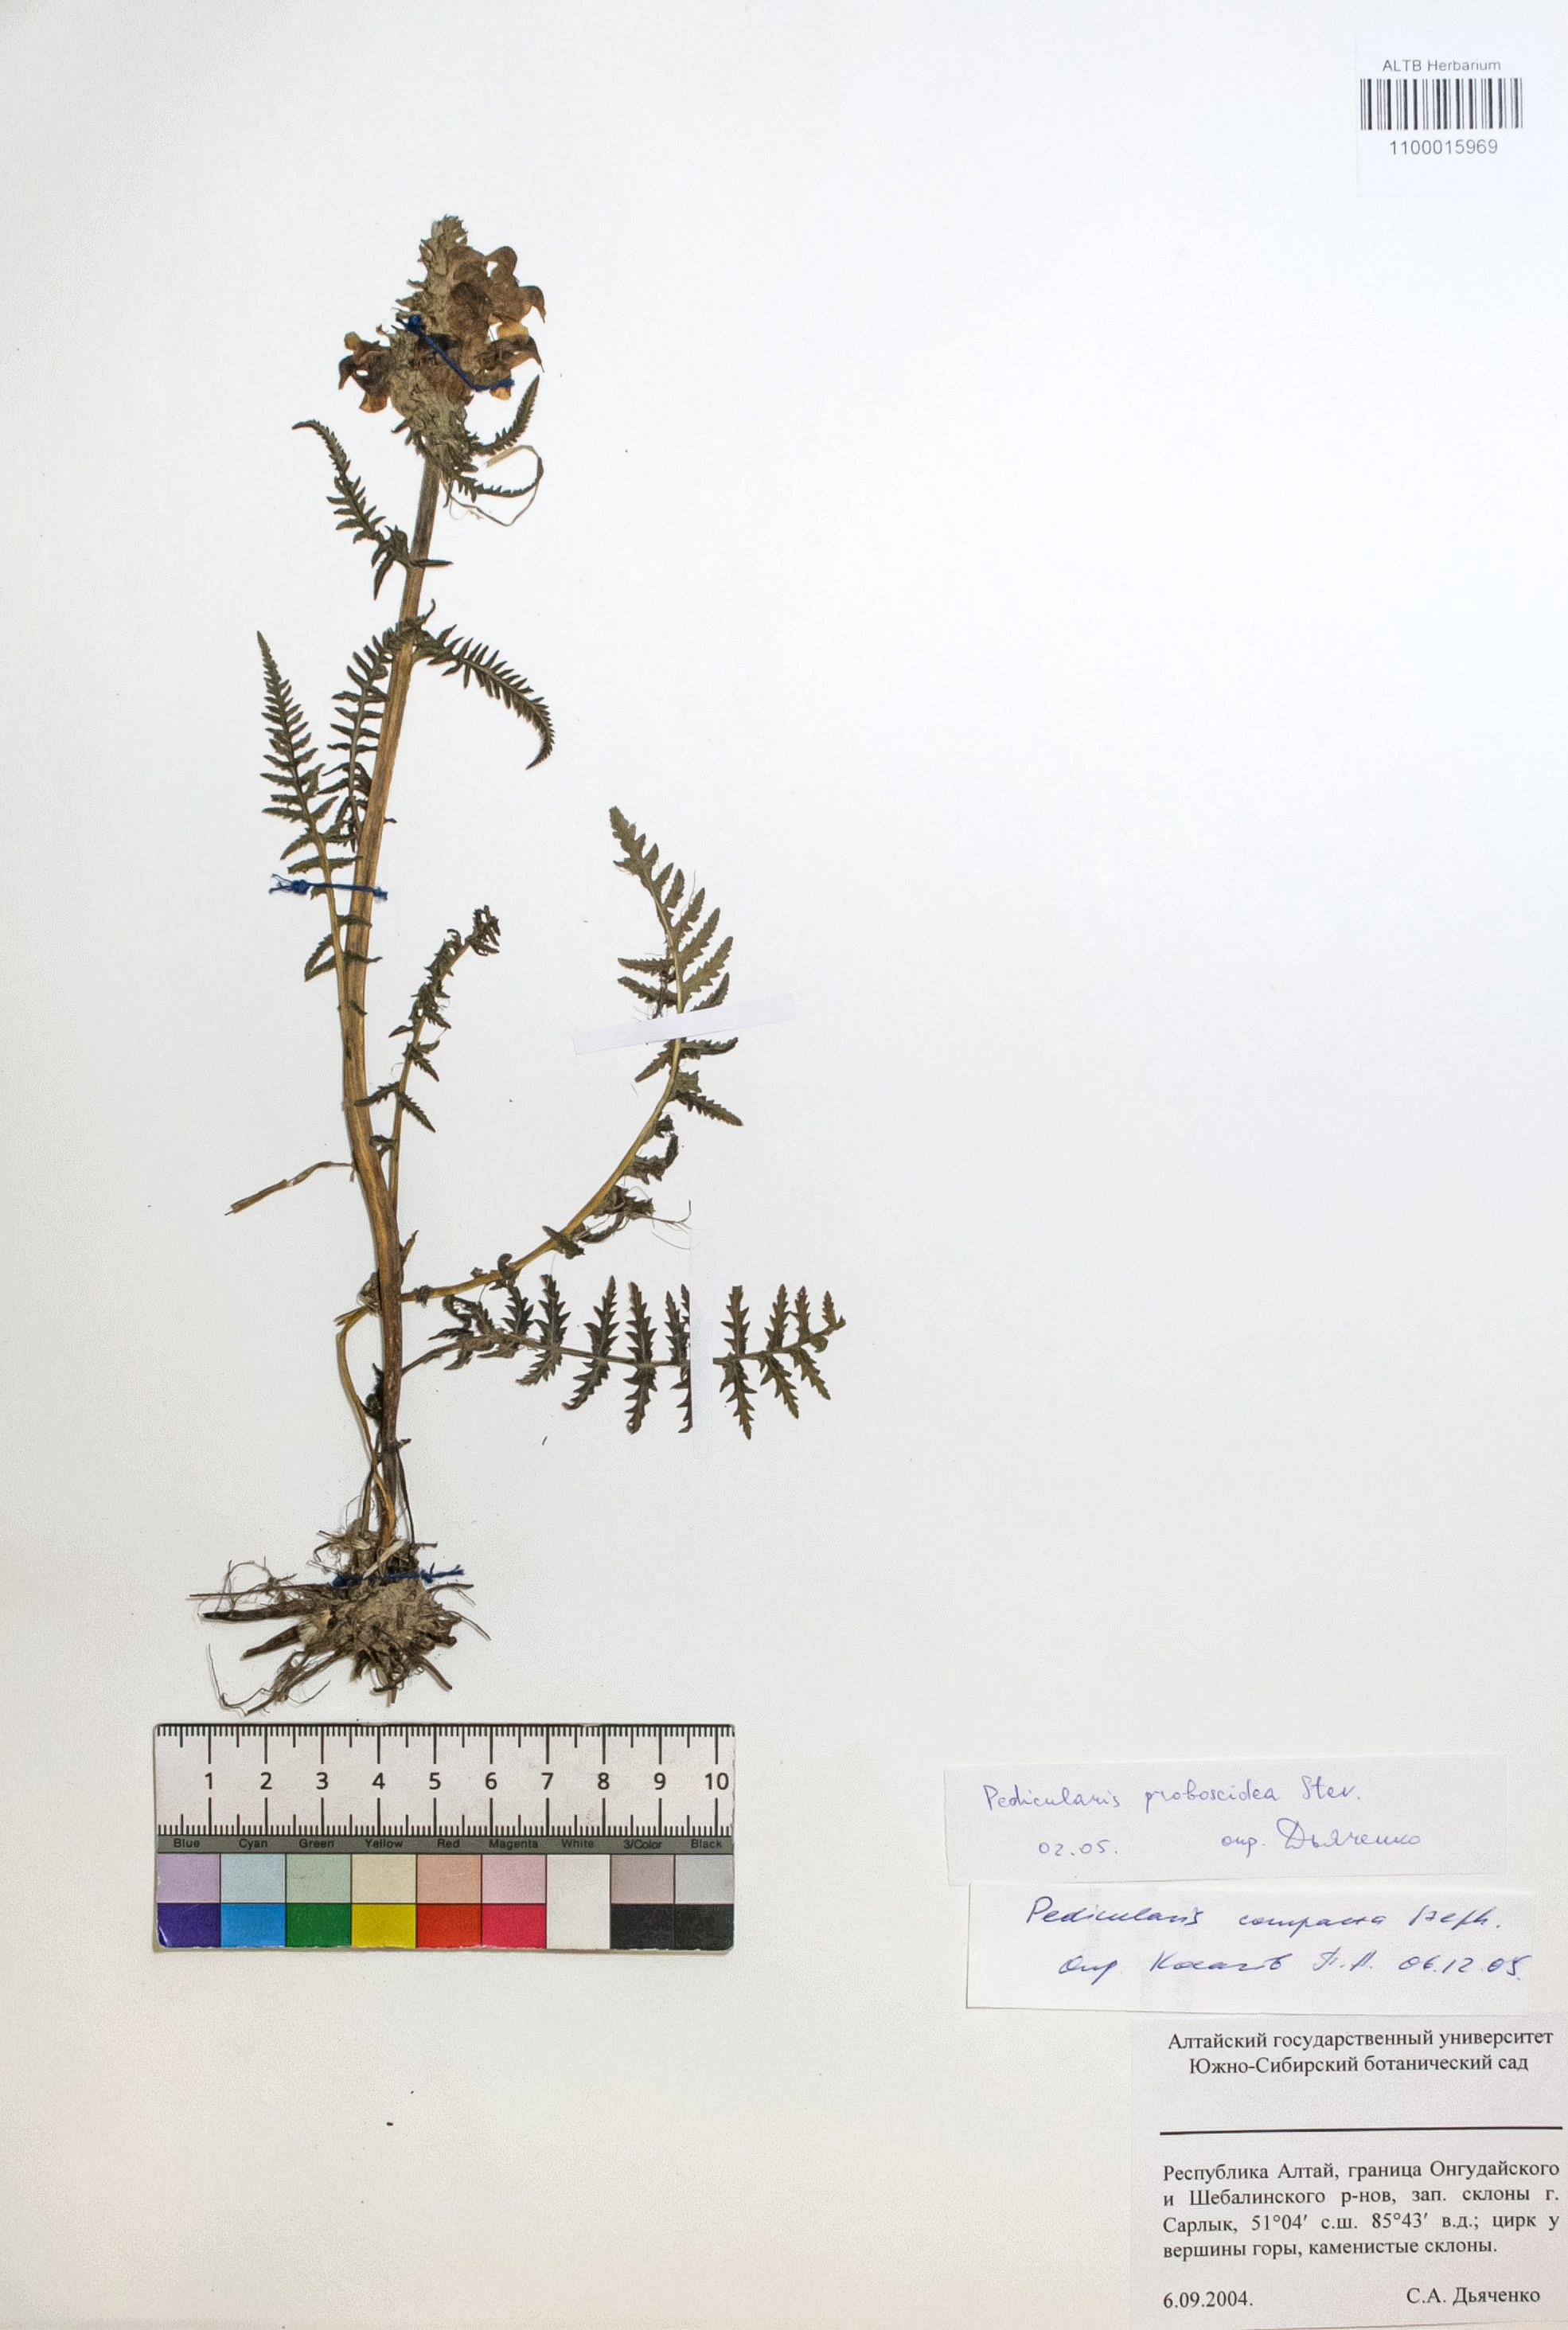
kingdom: Plantae
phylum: Tracheophyta
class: Magnoliopsida
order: Lamiales
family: Orobanchaceae
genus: Pedicularis
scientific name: Pedicularis proboscidea
